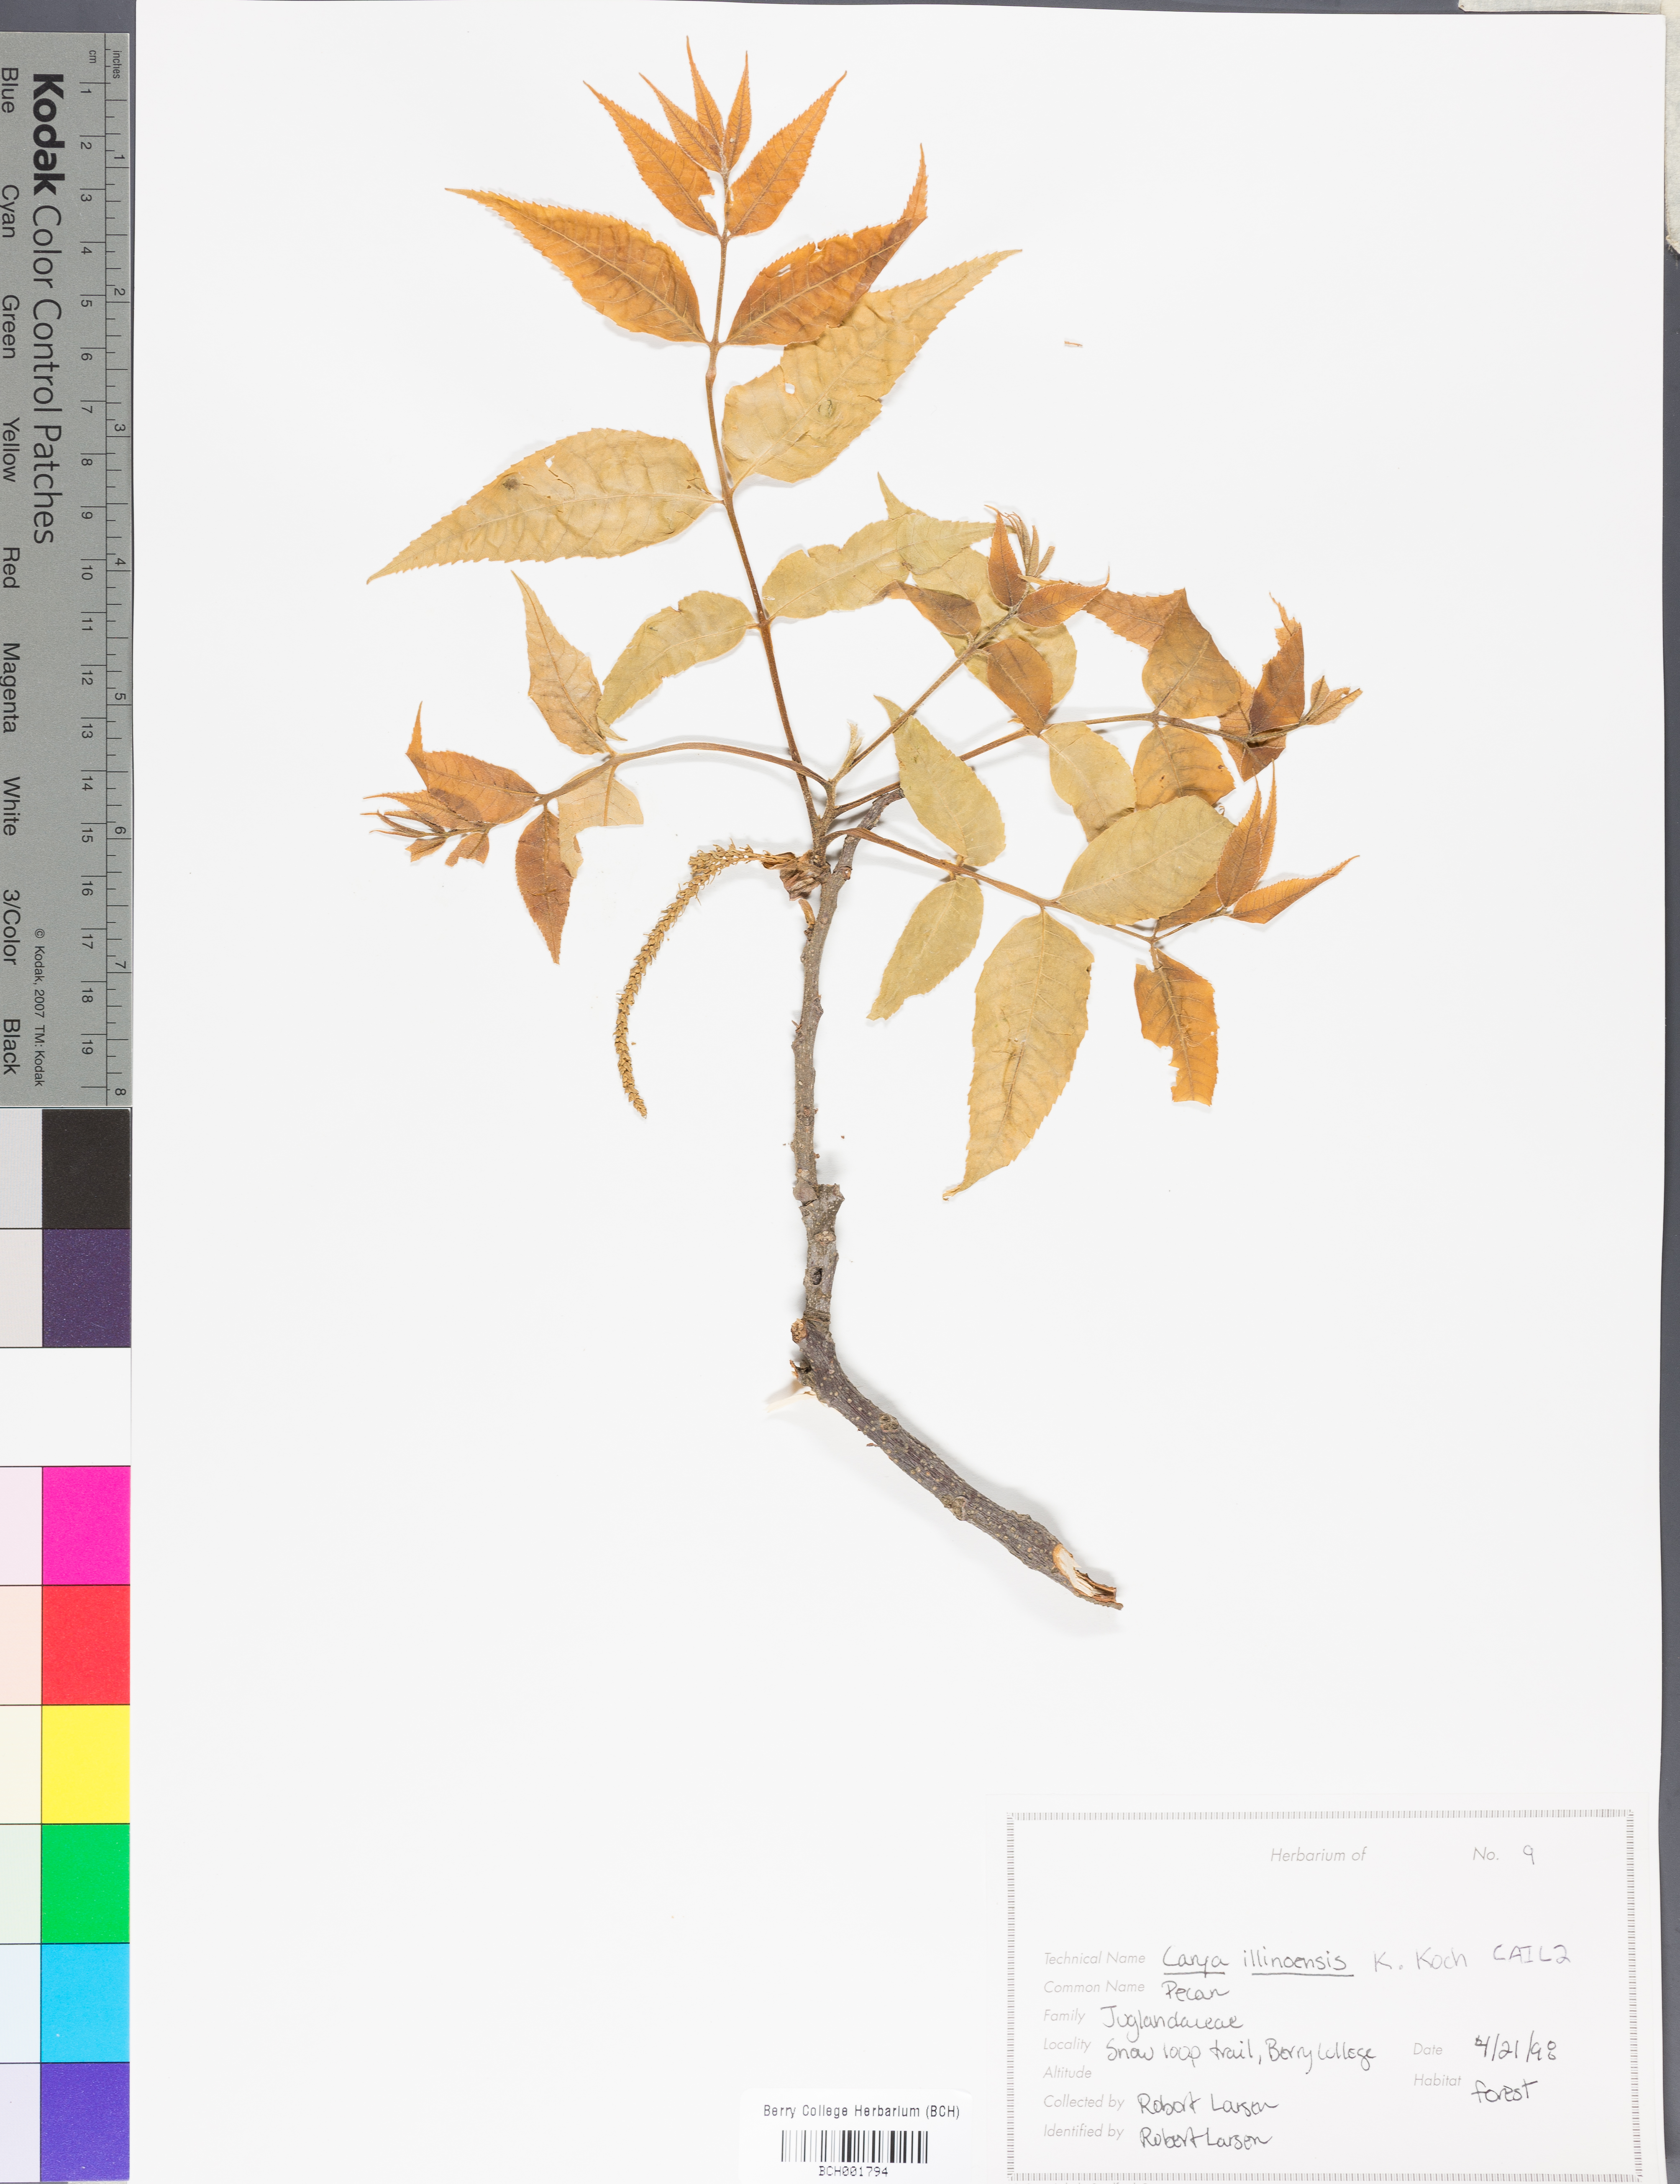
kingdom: Plantae
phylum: Tracheophyta
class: Magnoliopsida
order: Fagales
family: Juglandaceae
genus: Carya
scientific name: Carya illinoinensis
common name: Pecan
